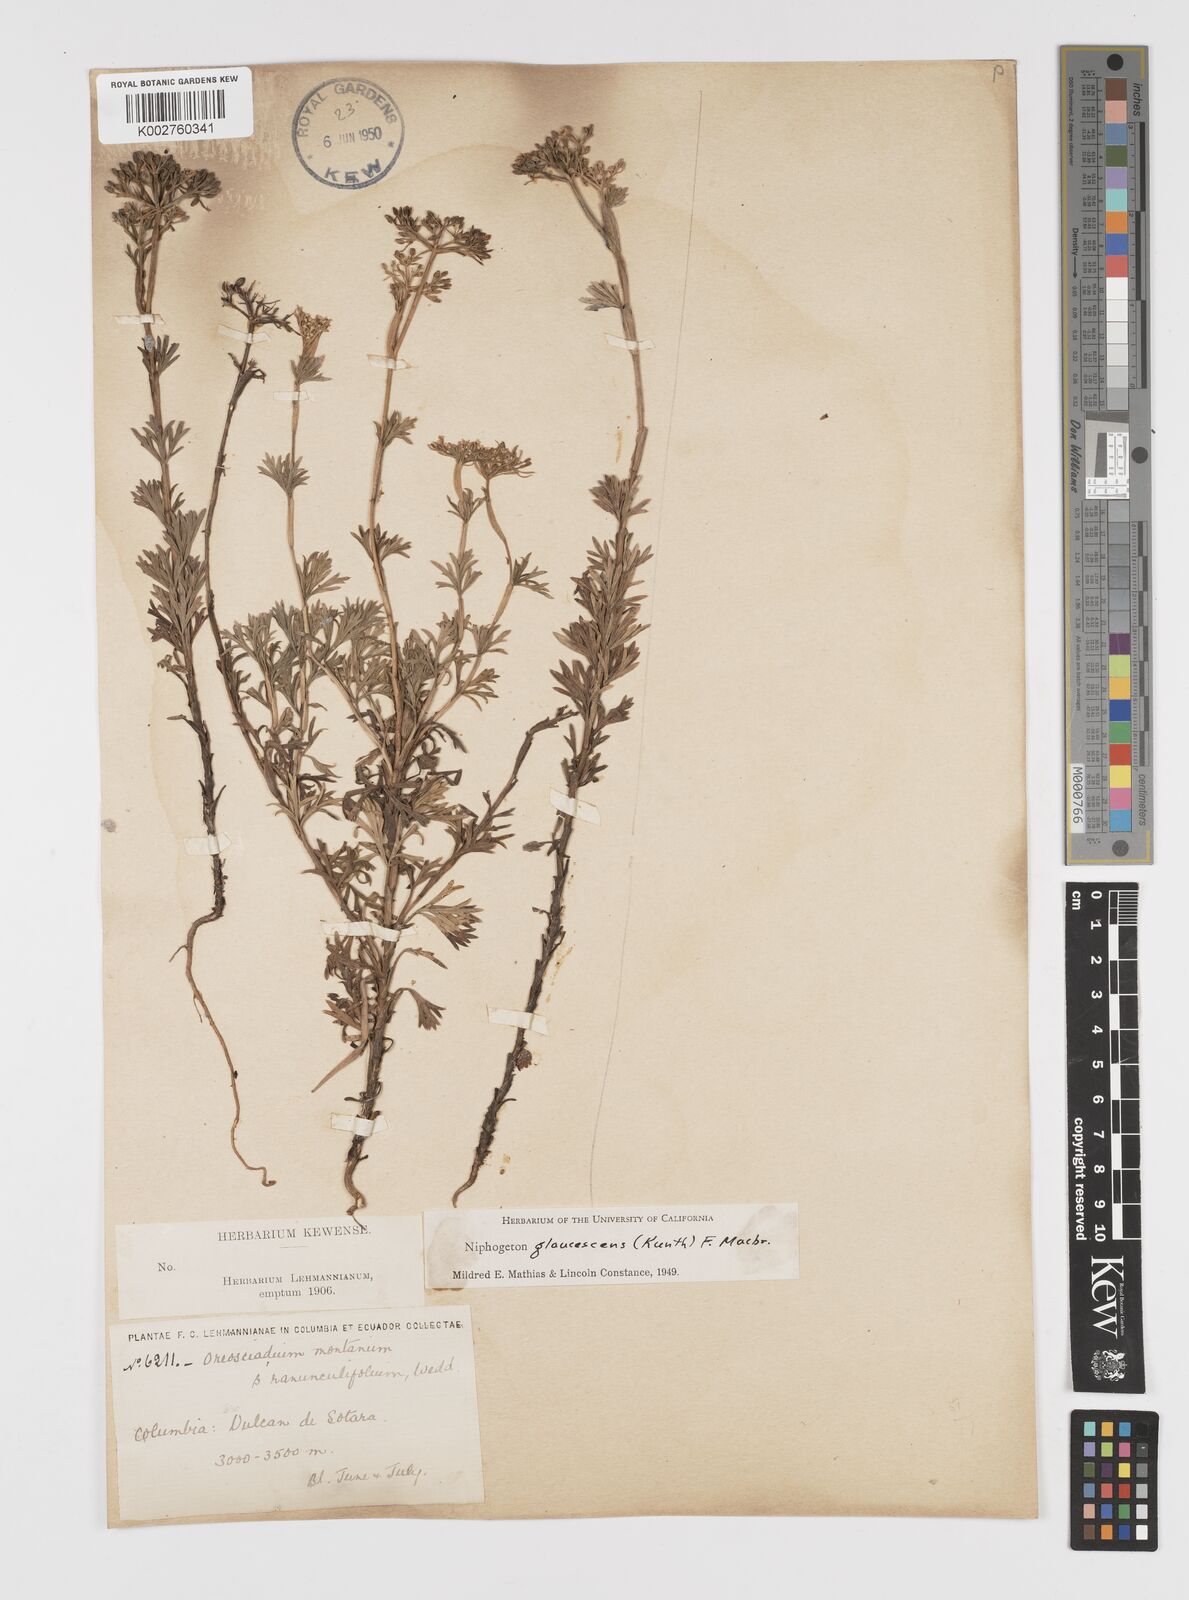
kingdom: Plantae
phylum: Tracheophyta
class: Magnoliopsida
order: Apiales
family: Apiaceae
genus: Niphogeton
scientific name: Niphogeton glaucescens
